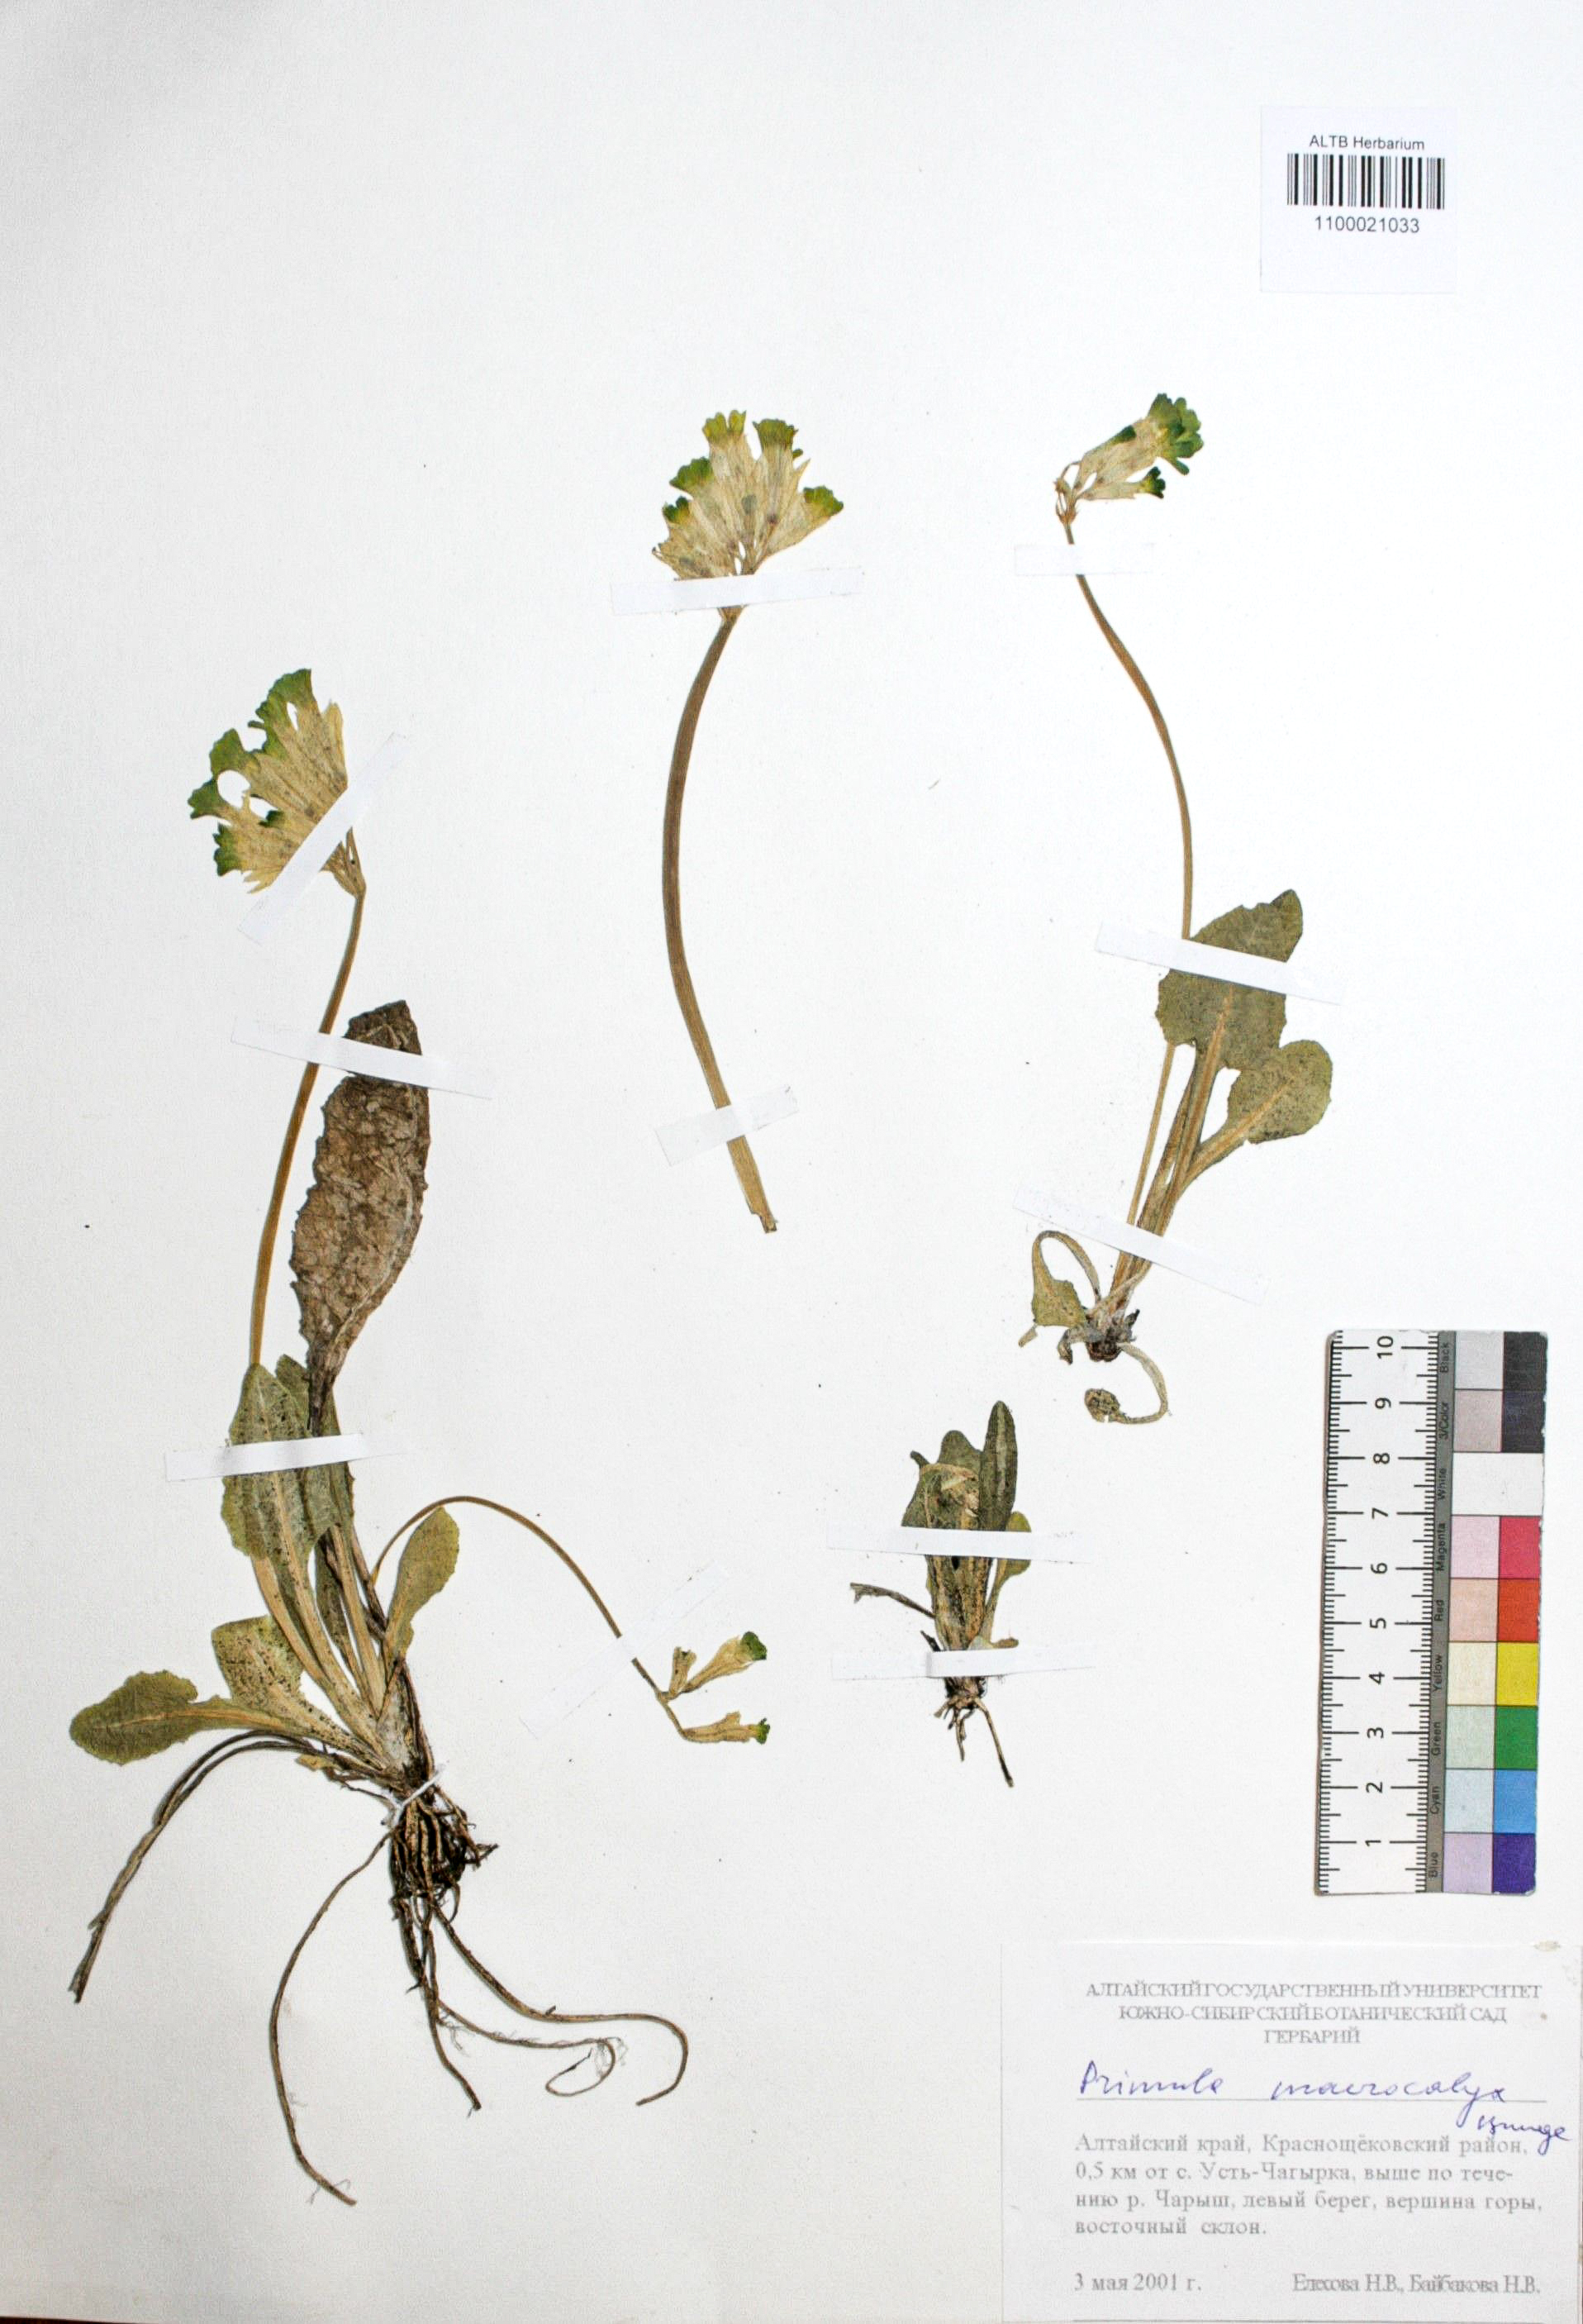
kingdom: Plantae
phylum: Tracheophyta
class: Magnoliopsida
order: Ericales
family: Primulaceae
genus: Primula
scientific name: Primula veris
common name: Cowslip
